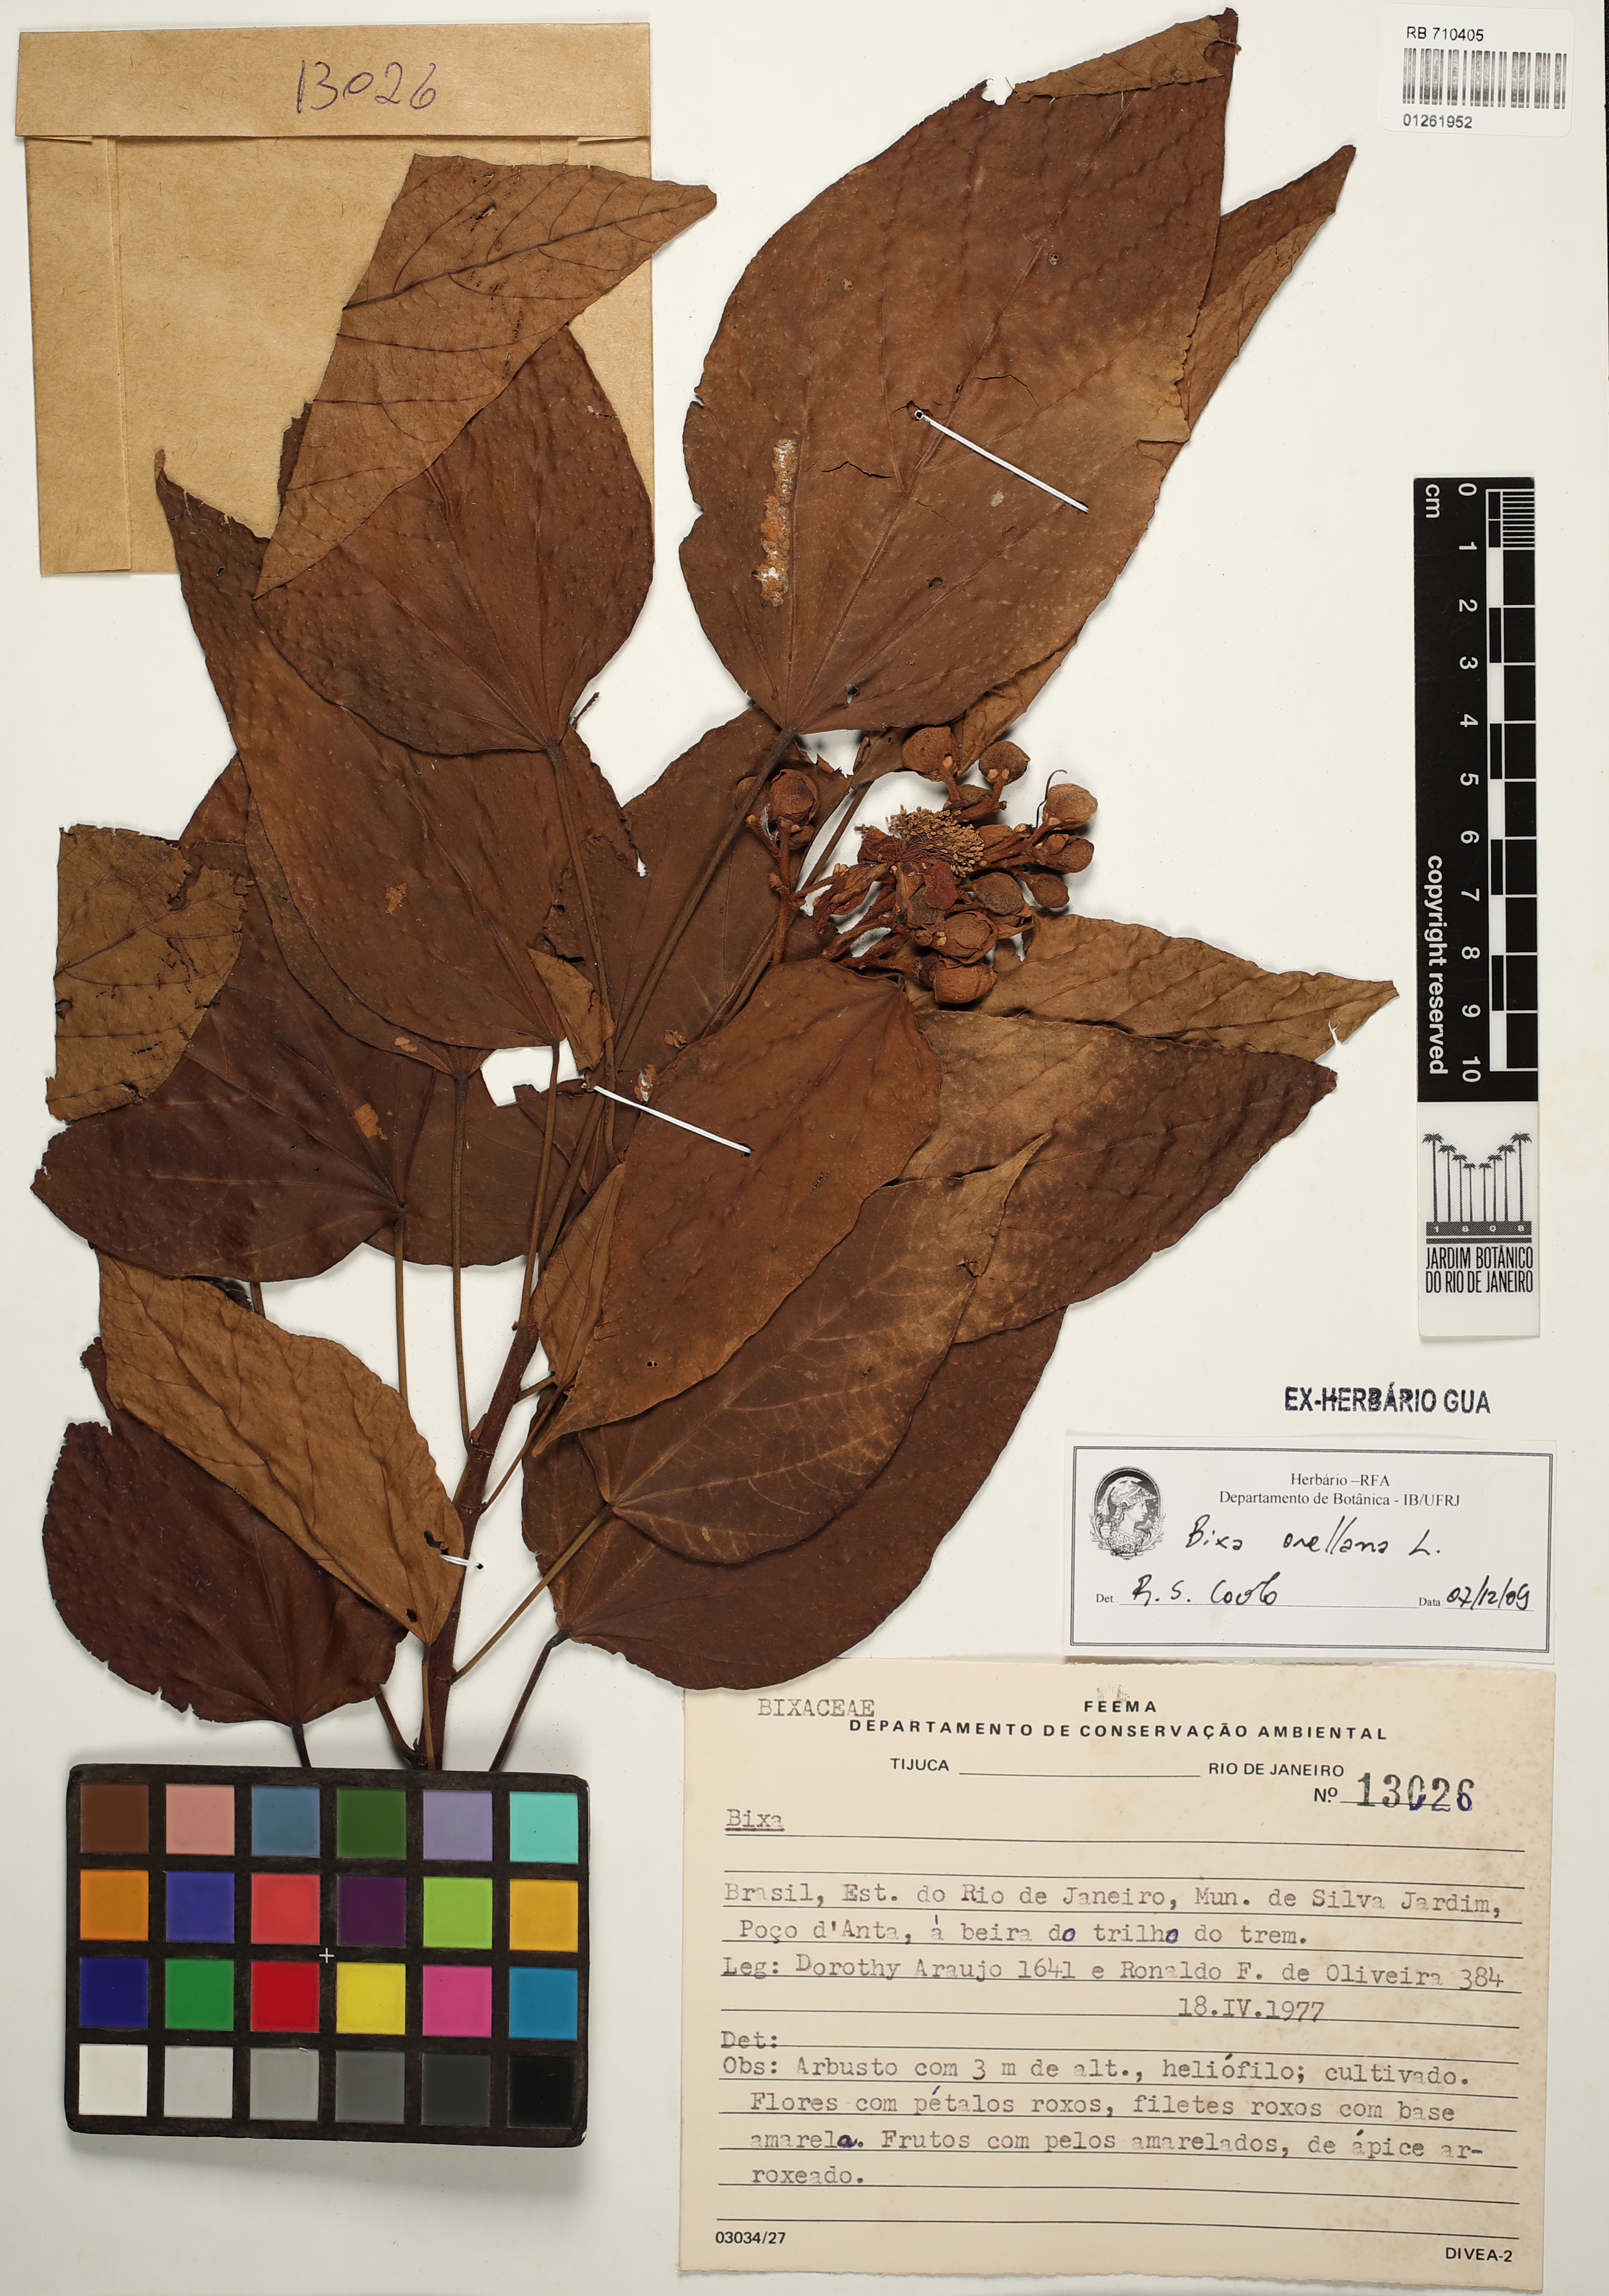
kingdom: Plantae
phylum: Tracheophyta
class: Magnoliopsida
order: Malvales
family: Bixaceae
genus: Bixa
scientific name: Bixa orellana
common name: Lipsticktree
